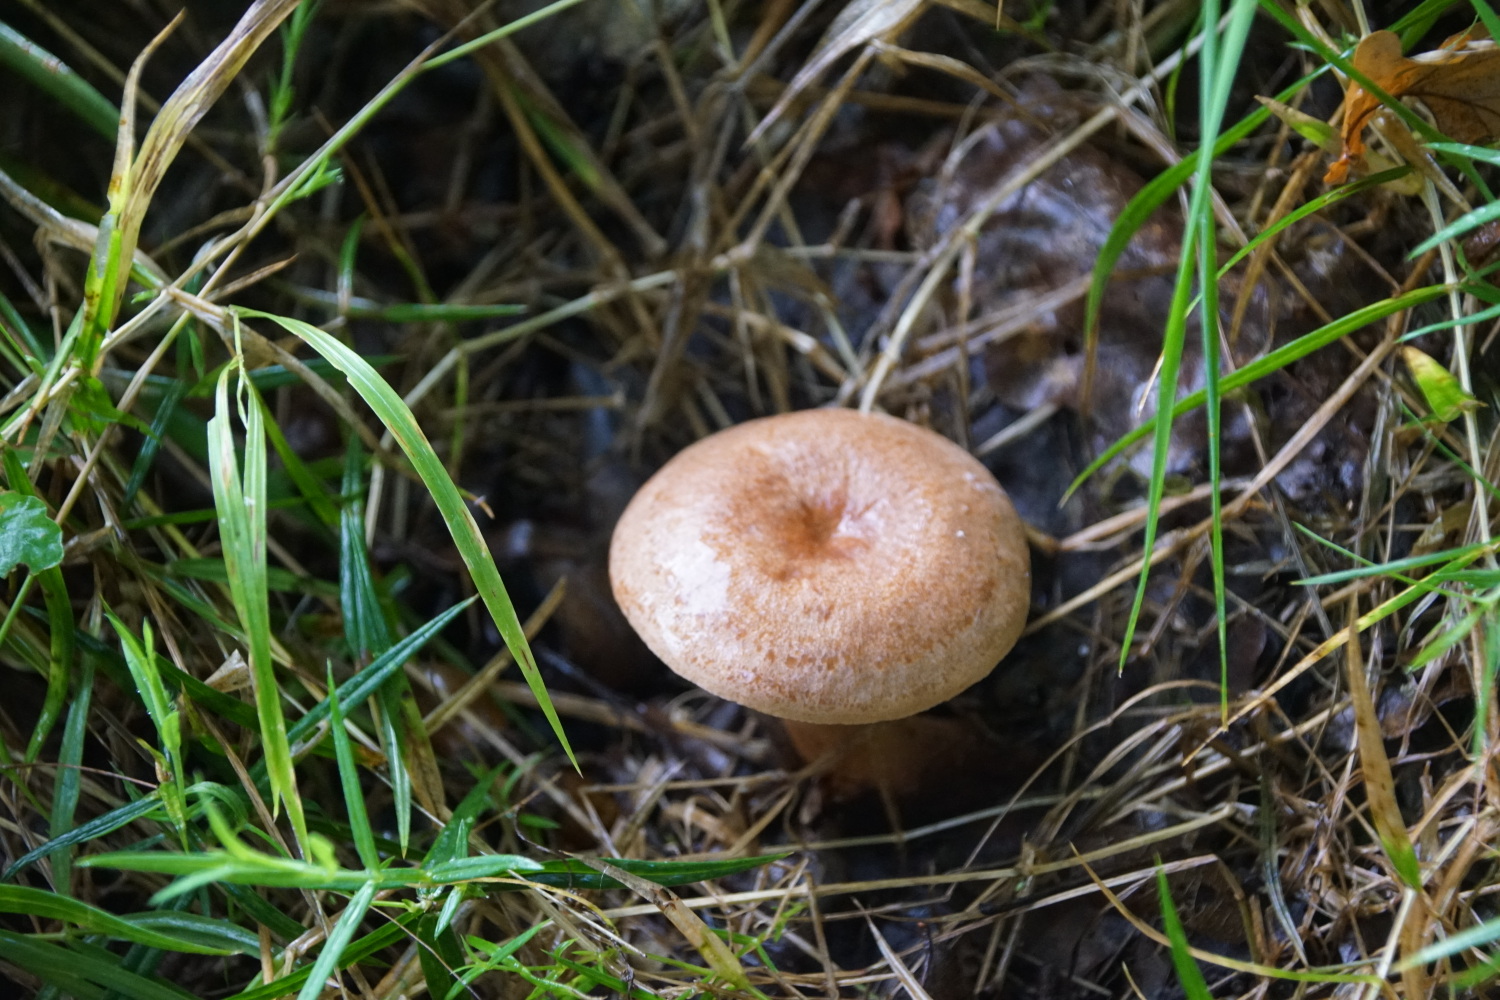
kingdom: Fungi
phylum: Basidiomycota
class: Agaricomycetes
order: Russulales
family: Russulaceae
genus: Lactarius
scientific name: Lactarius quietus
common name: ege-mælkehat
